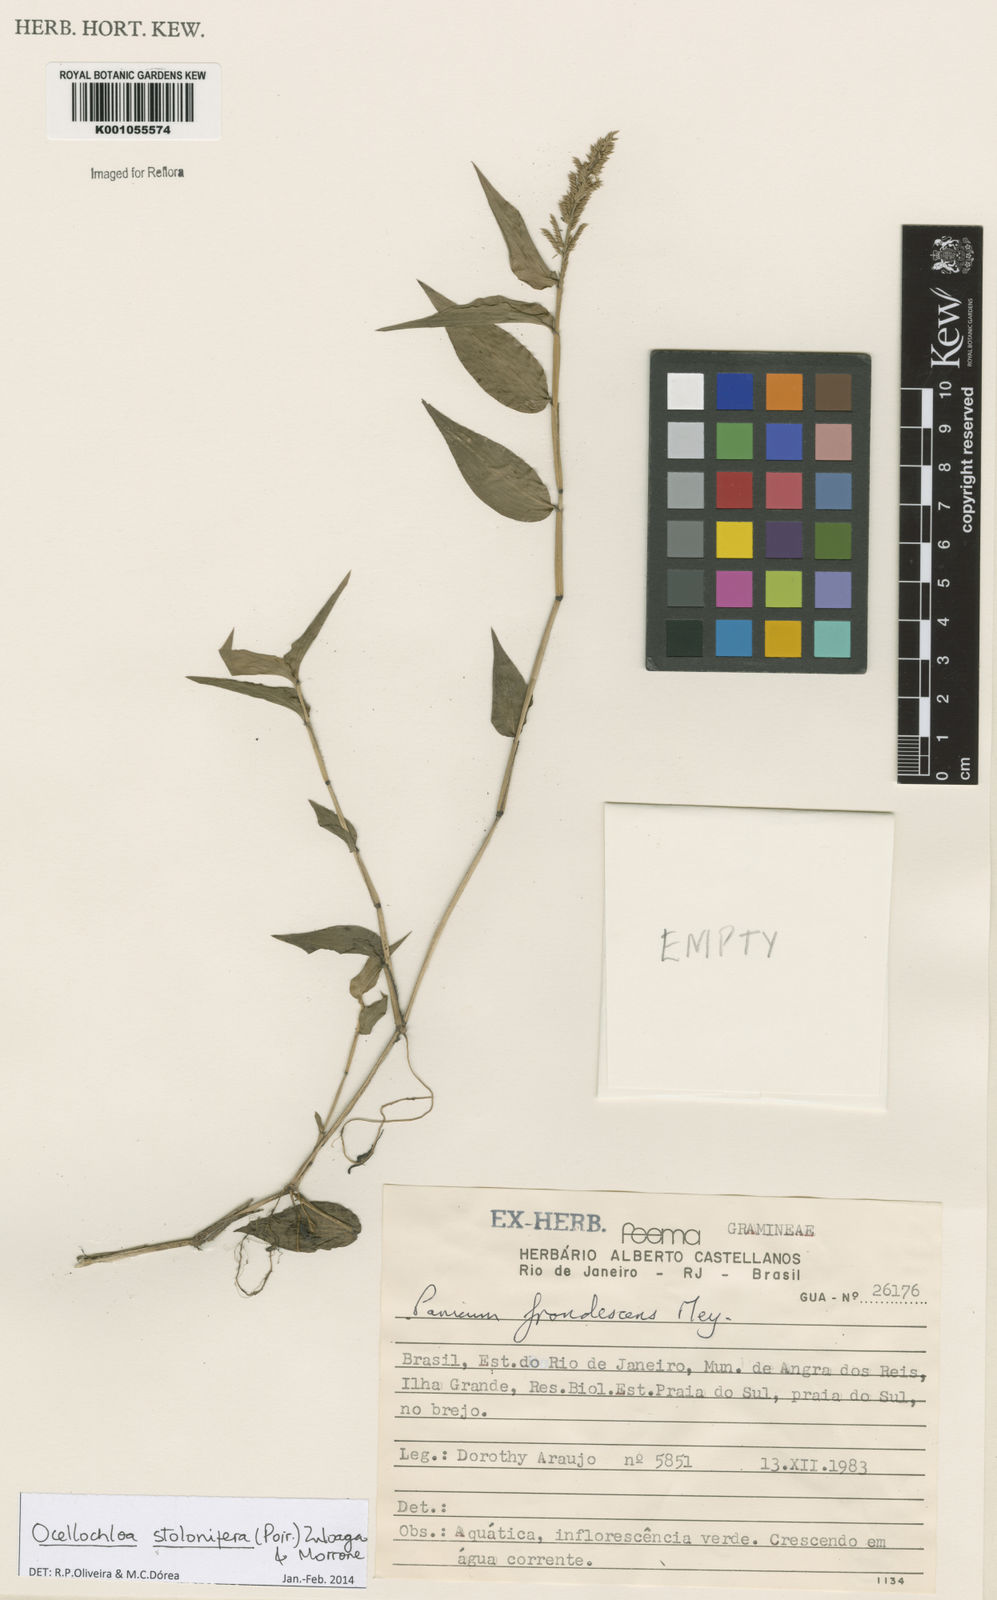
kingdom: Plantae
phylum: Tracheophyta
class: Liliopsida
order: Poales
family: Poaceae
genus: Ocellochloa
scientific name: Ocellochloa stolonifera
